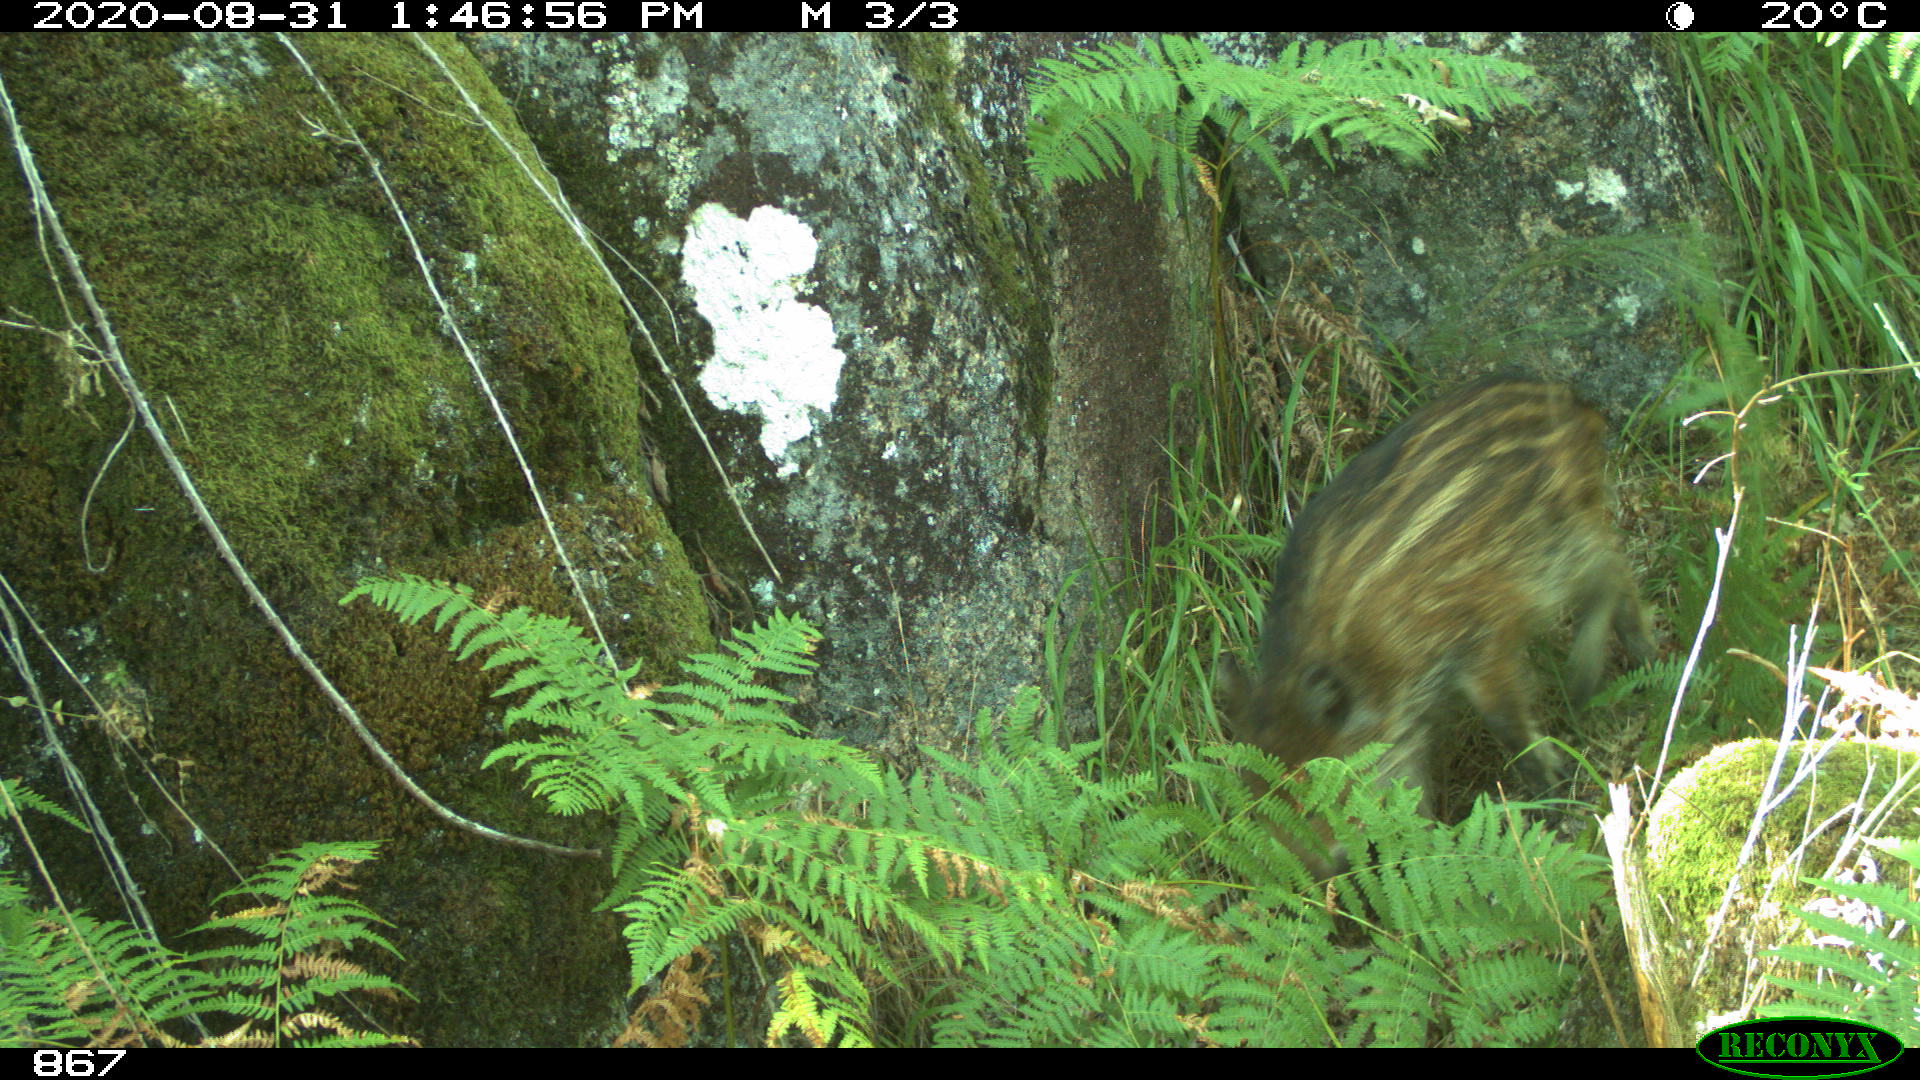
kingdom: Animalia
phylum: Chordata
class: Mammalia
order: Artiodactyla
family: Suidae
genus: Sus
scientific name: Sus scrofa
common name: Wild boar
